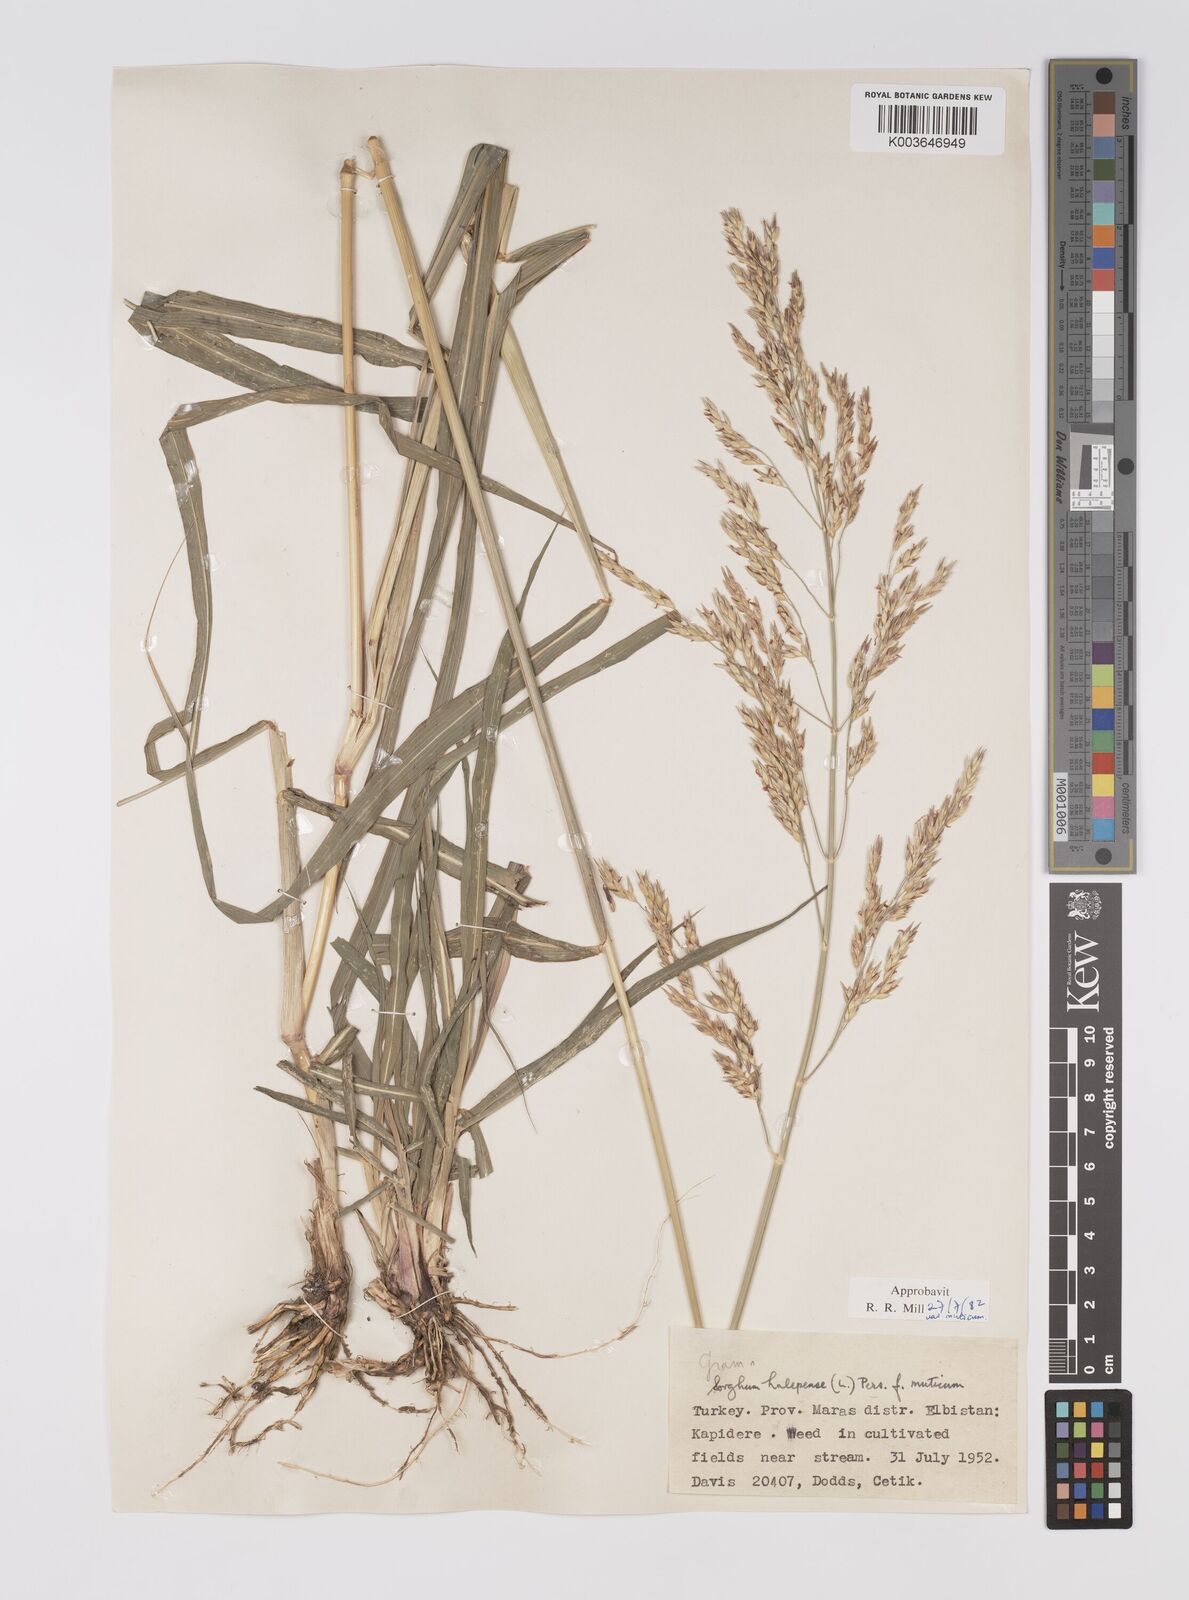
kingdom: Plantae
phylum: Tracheophyta
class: Liliopsida
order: Poales
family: Poaceae
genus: Sorghum
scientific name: Sorghum halepense
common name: Johnson-grass
